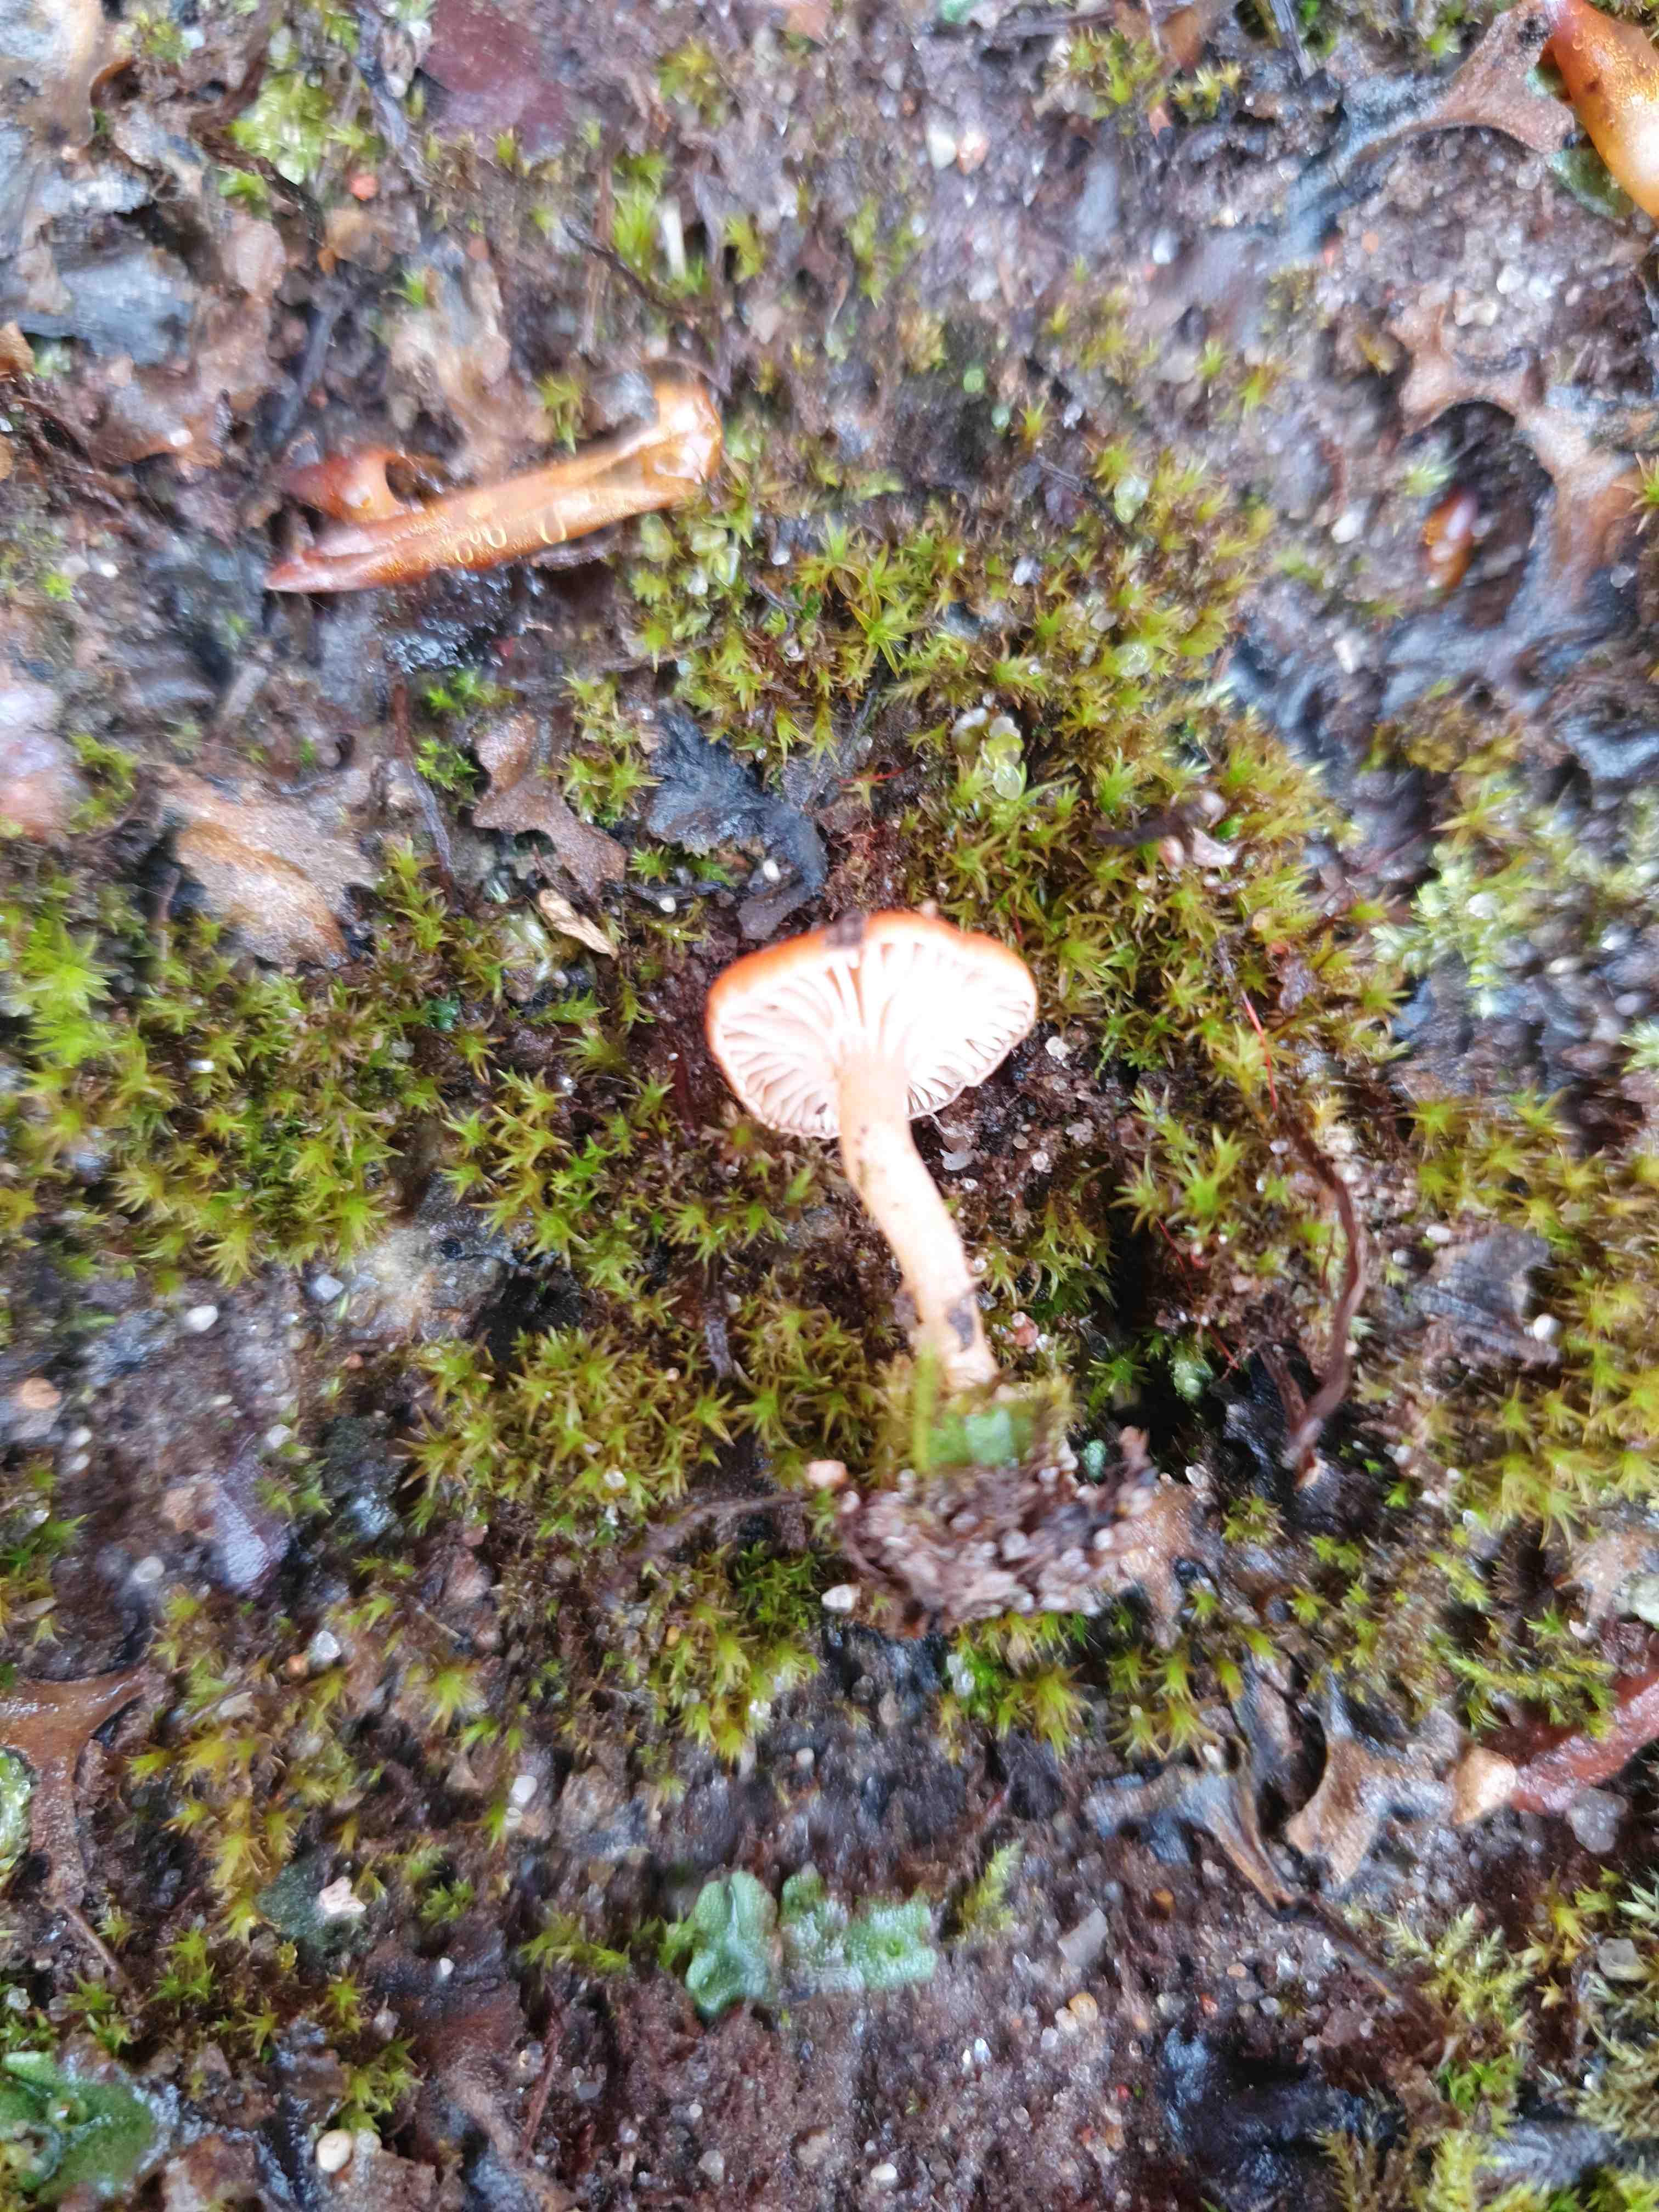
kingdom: Fungi
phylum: Basidiomycota
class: Agaricomycetes
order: Hymenochaetales
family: Rickenellaceae
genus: Loreleia
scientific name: Loreleia postii
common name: brandplet-mosnavlehat
